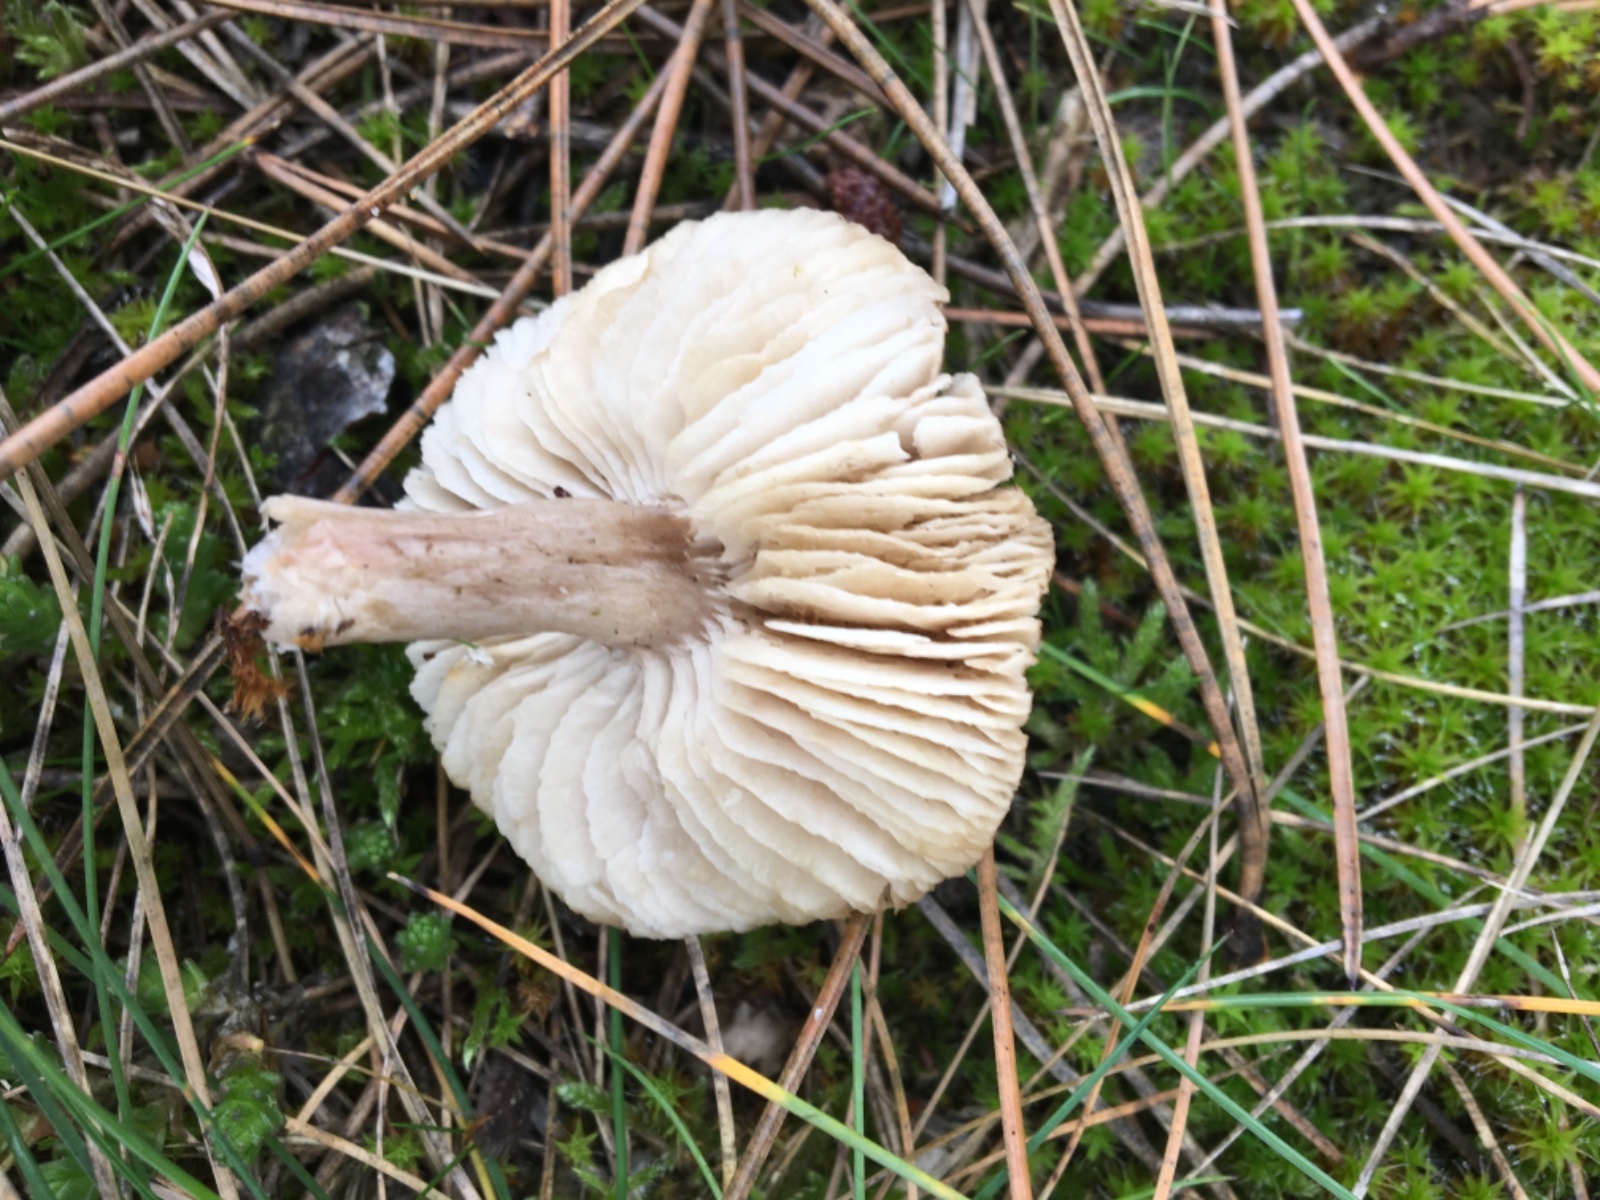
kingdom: Fungi
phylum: Basidiomycota
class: Agaricomycetes
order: Agaricales
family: Tricholomataceae
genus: Tricholoma
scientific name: Tricholoma
